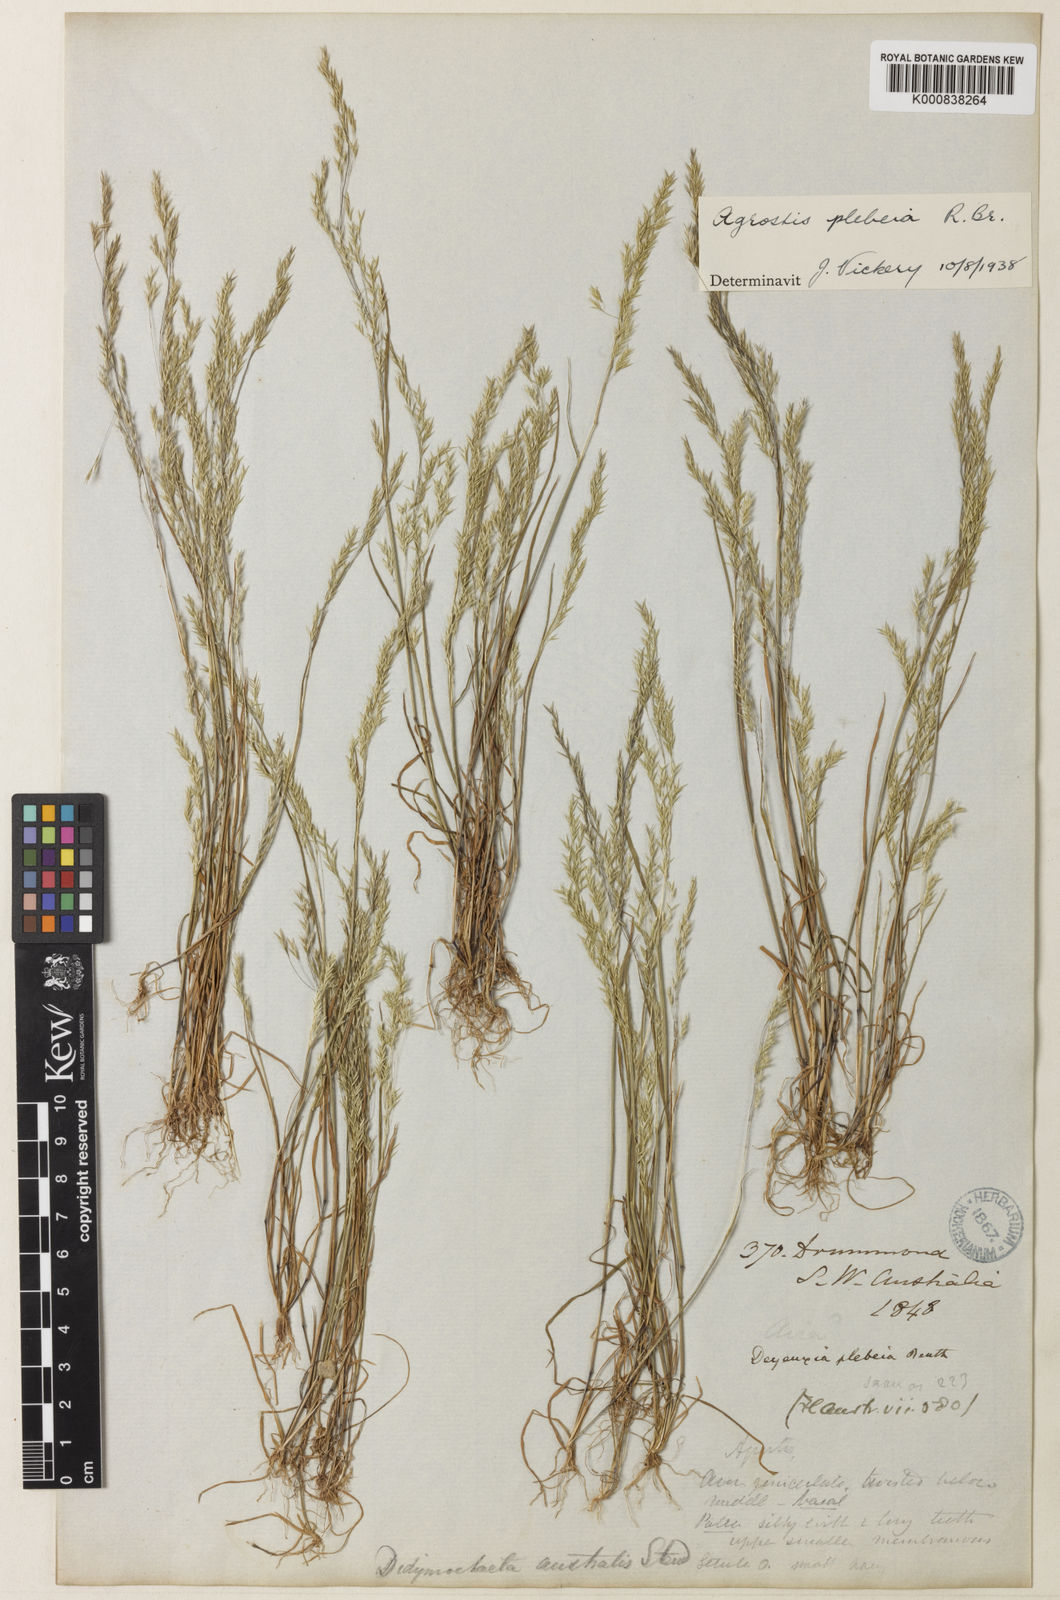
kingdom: Plantae
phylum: Tracheophyta
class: Liliopsida
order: Poales
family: Poaceae
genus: Lachnagrostis
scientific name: Lachnagrostis plebeia
